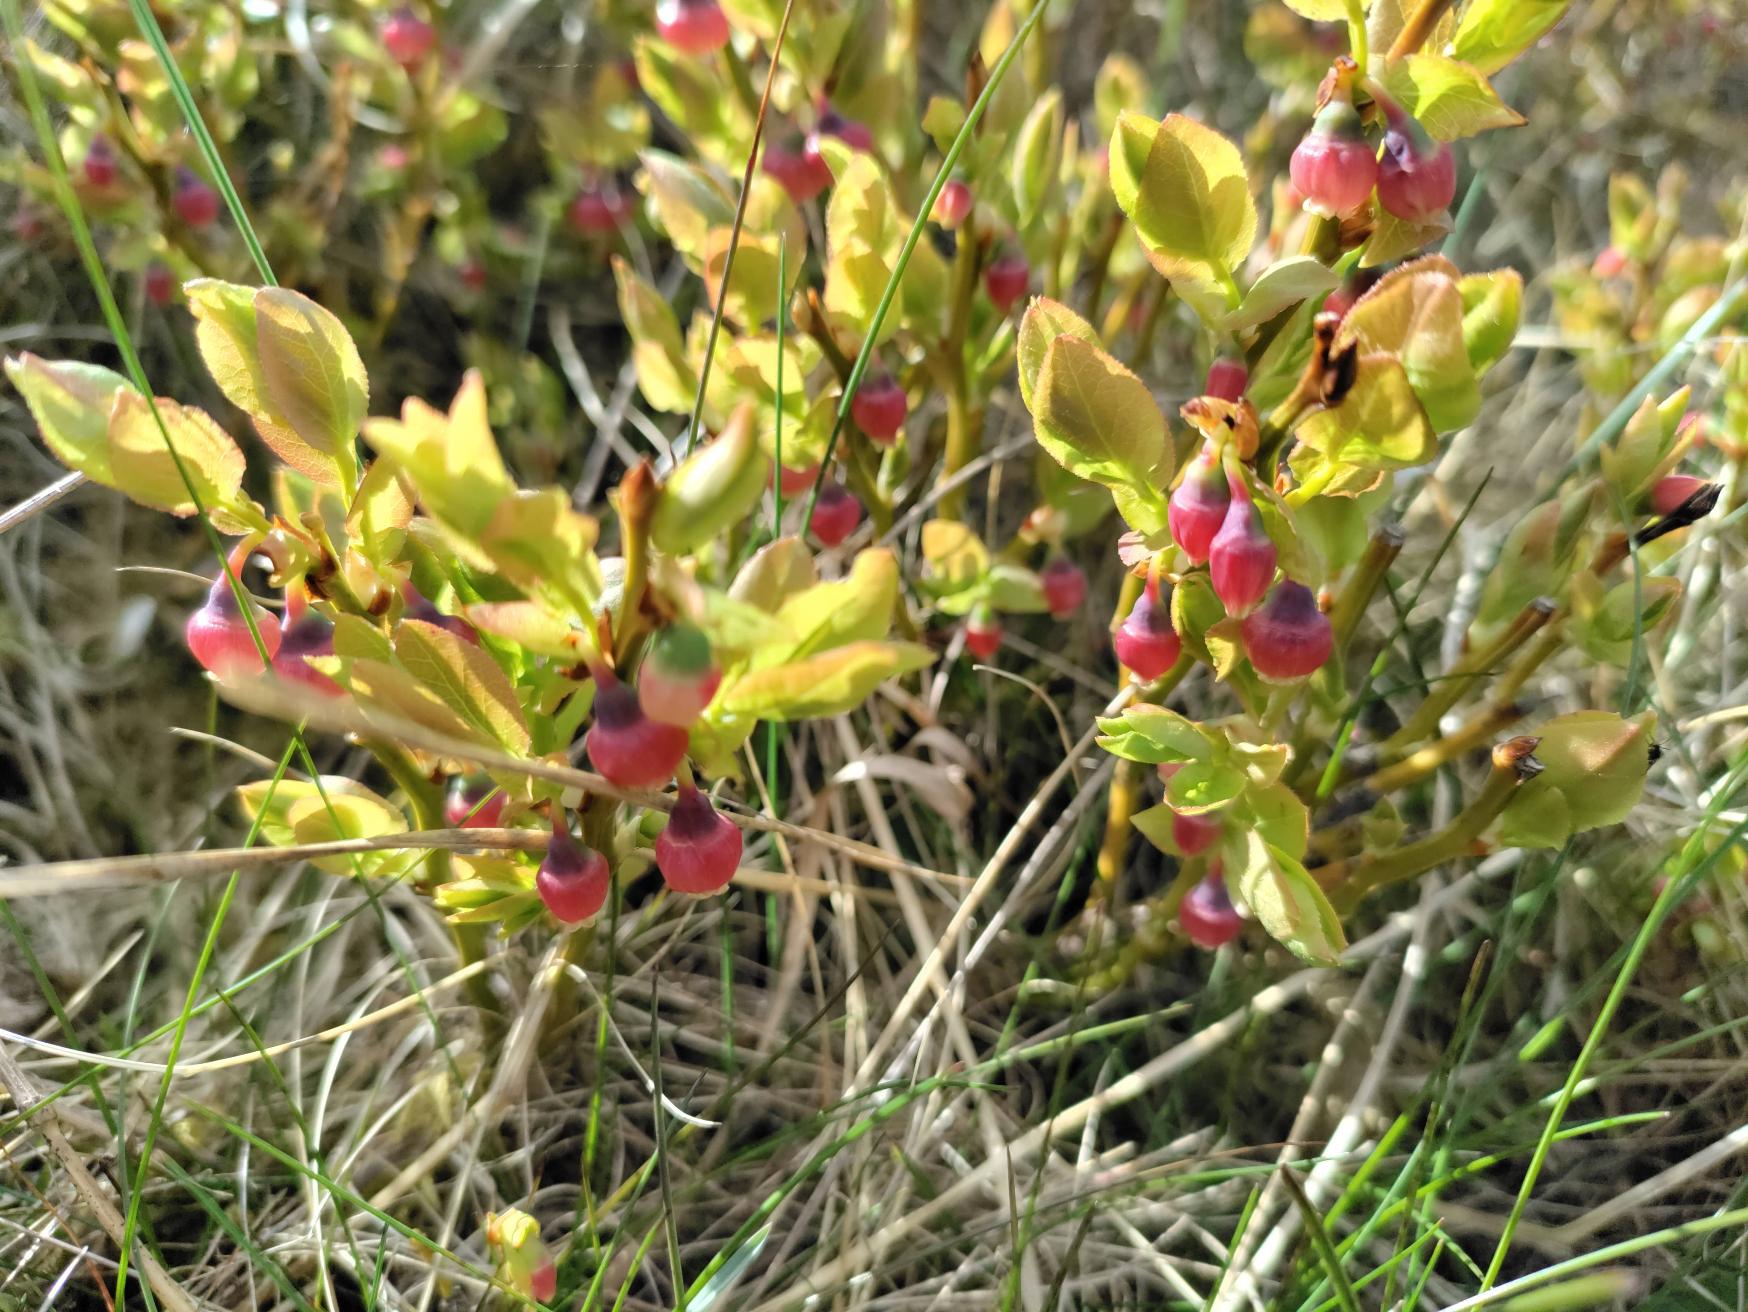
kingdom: Plantae
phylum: Tracheophyta
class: Magnoliopsida
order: Ericales
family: Ericaceae
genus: Vaccinium
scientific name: Vaccinium myrtillus
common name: Blåbær
